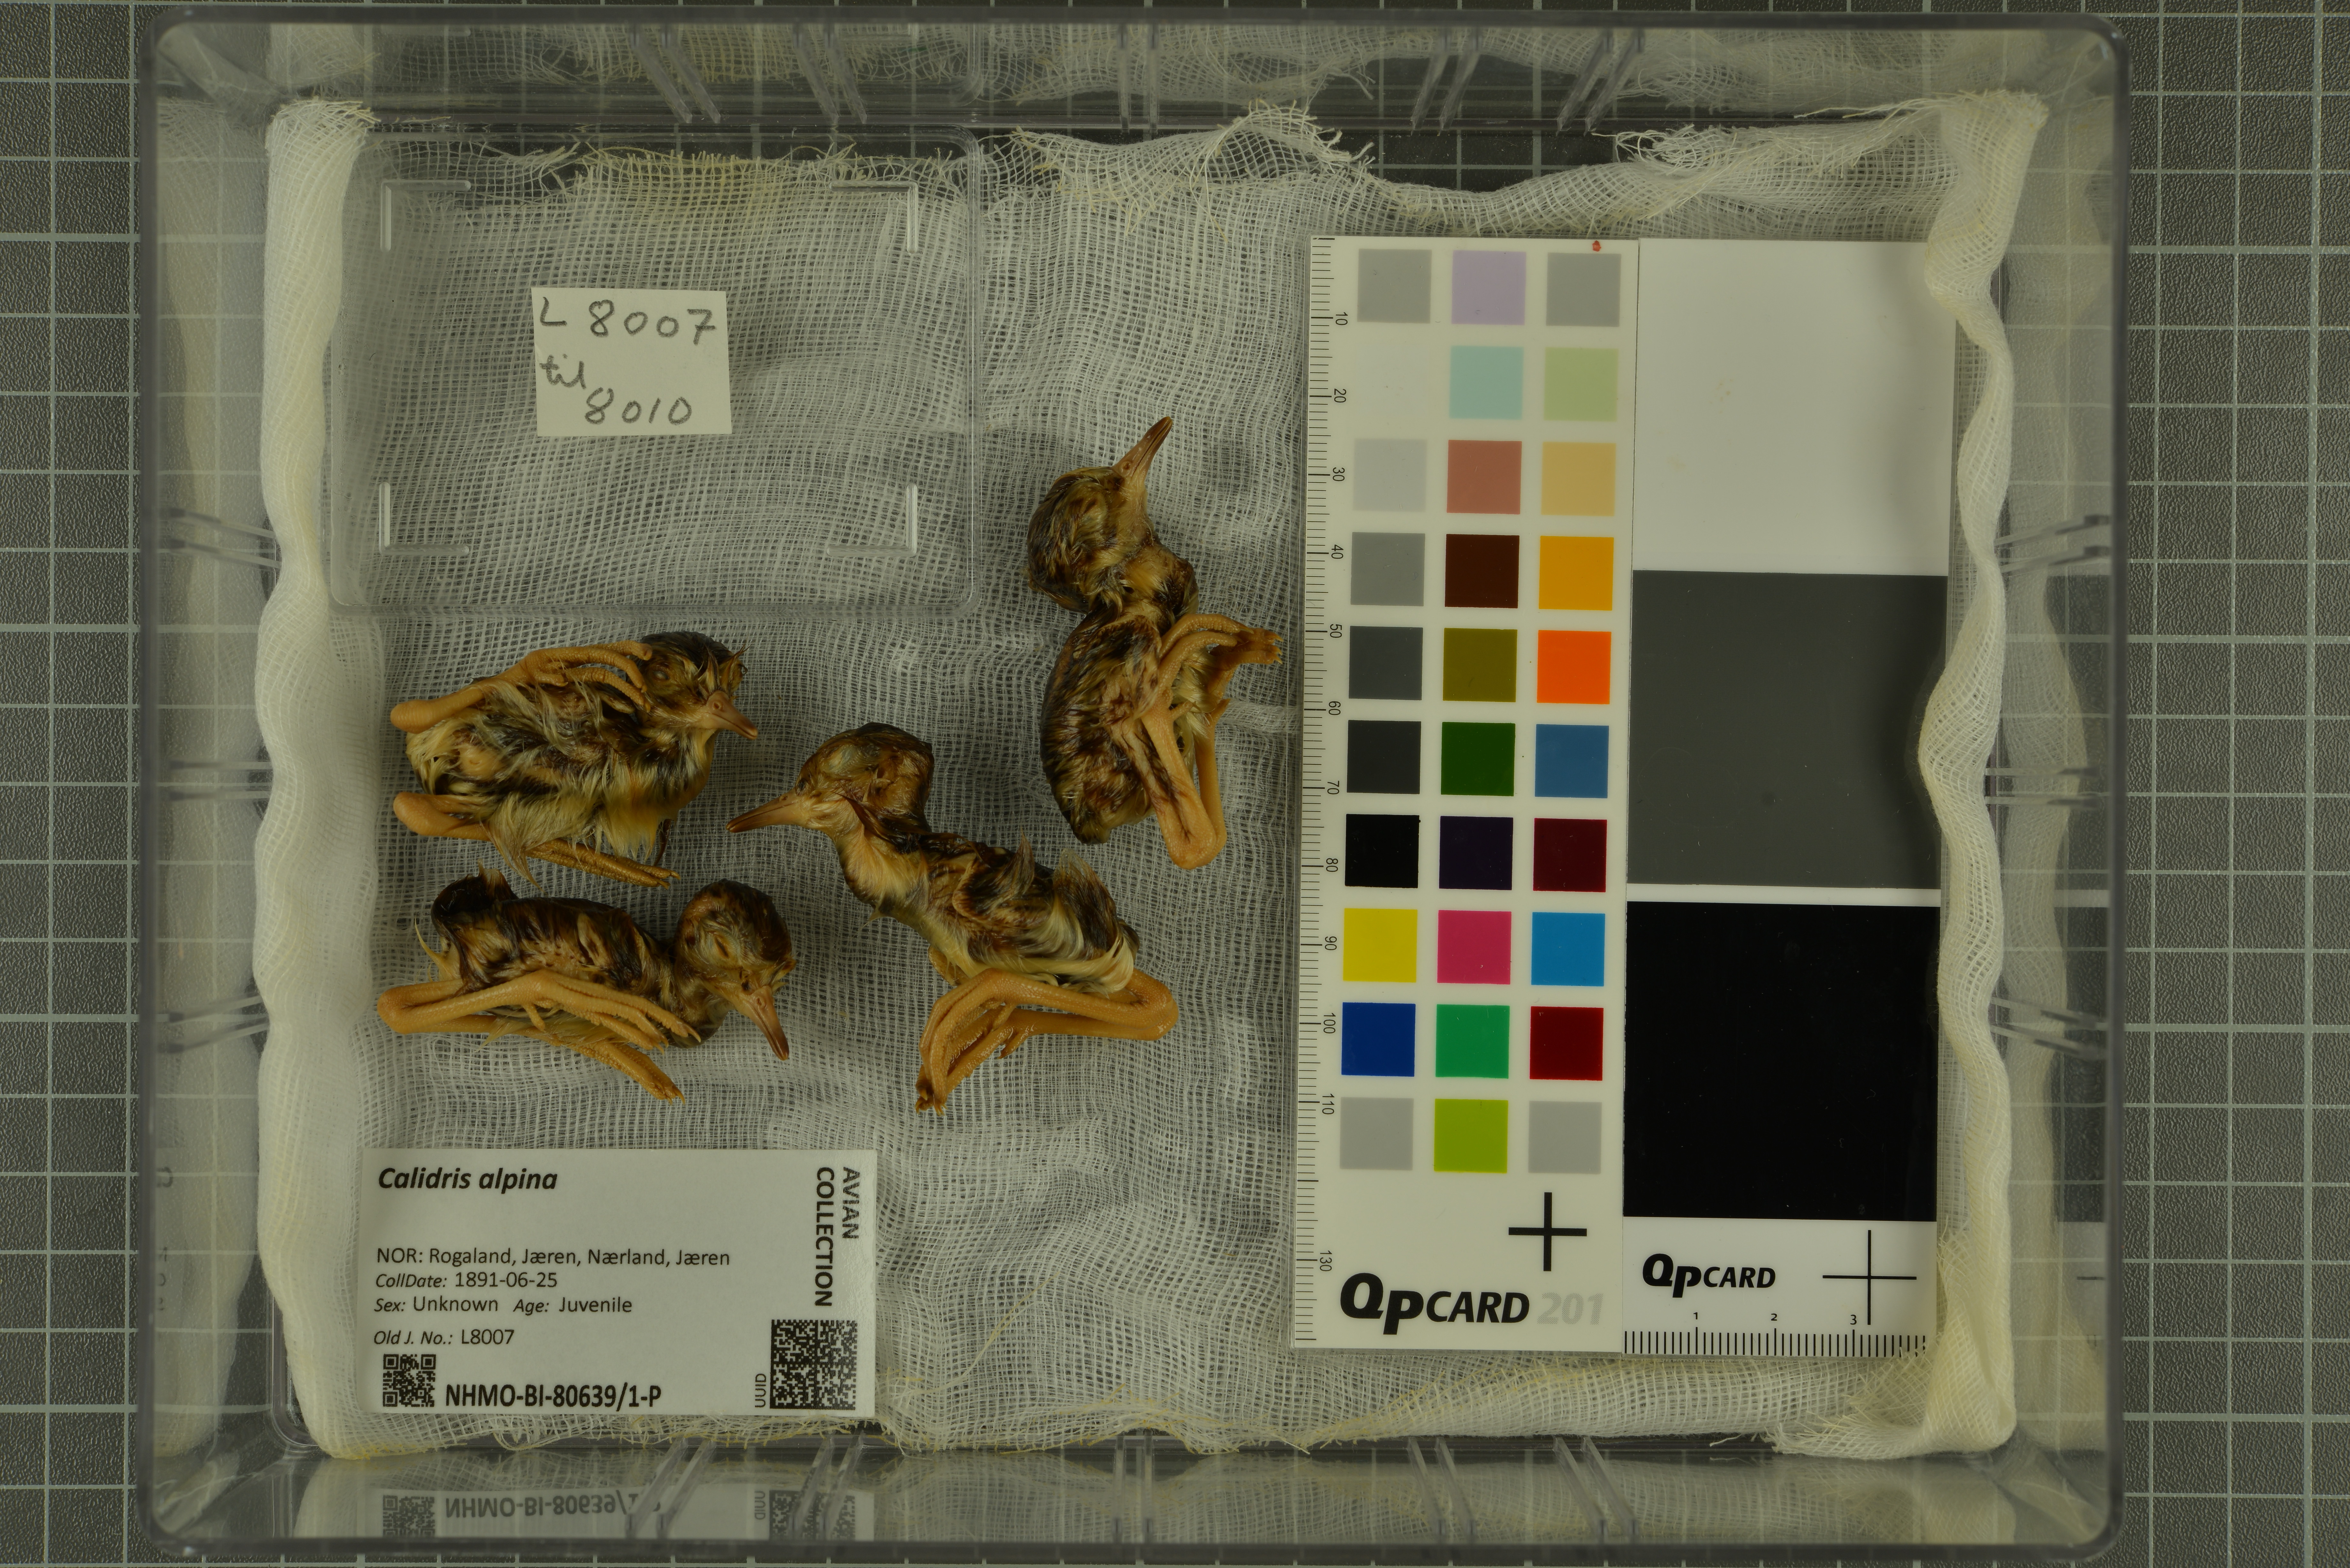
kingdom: Animalia
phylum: Chordata
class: Aves
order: Charadriiformes
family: Scolopacidae
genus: Calidris
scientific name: Calidris alpina
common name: Dunlin
